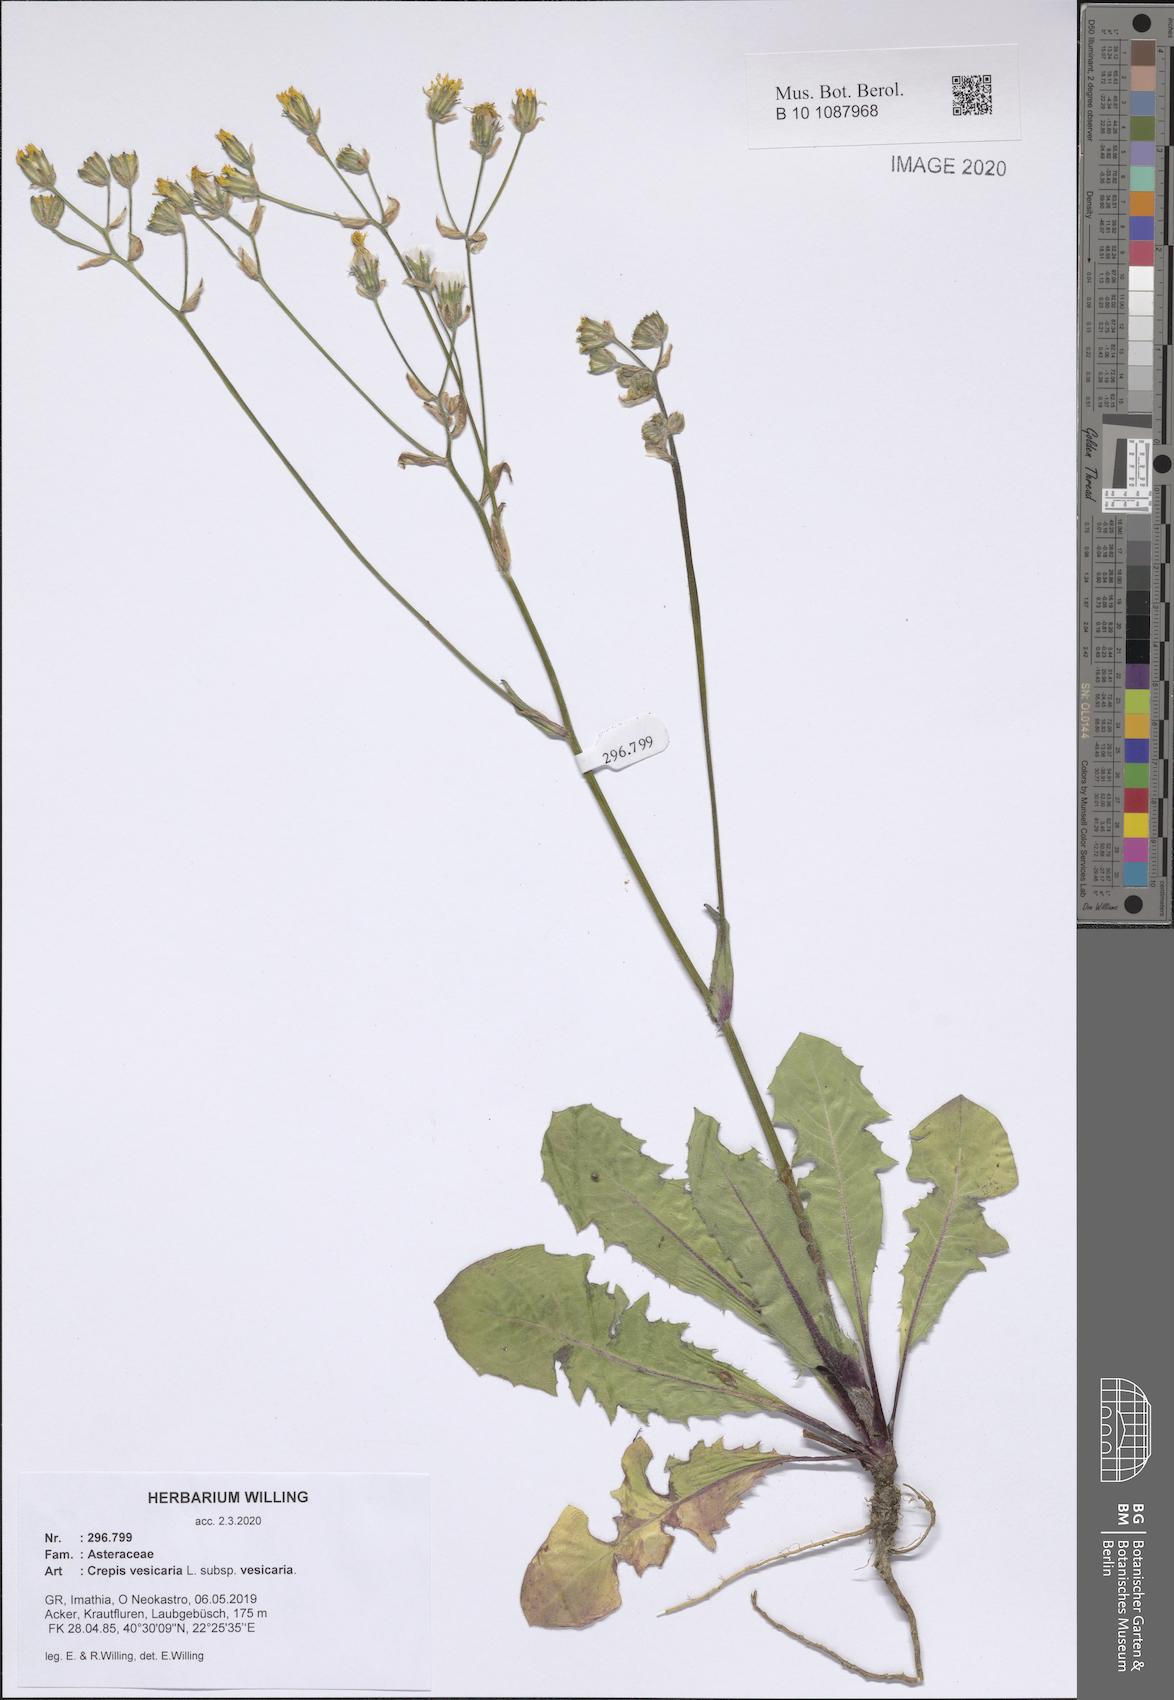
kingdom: Plantae
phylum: Tracheophyta
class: Magnoliopsida
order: Asterales
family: Asteraceae
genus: Crepis
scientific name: Crepis vesicaria
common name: Beaked hawksbeard
